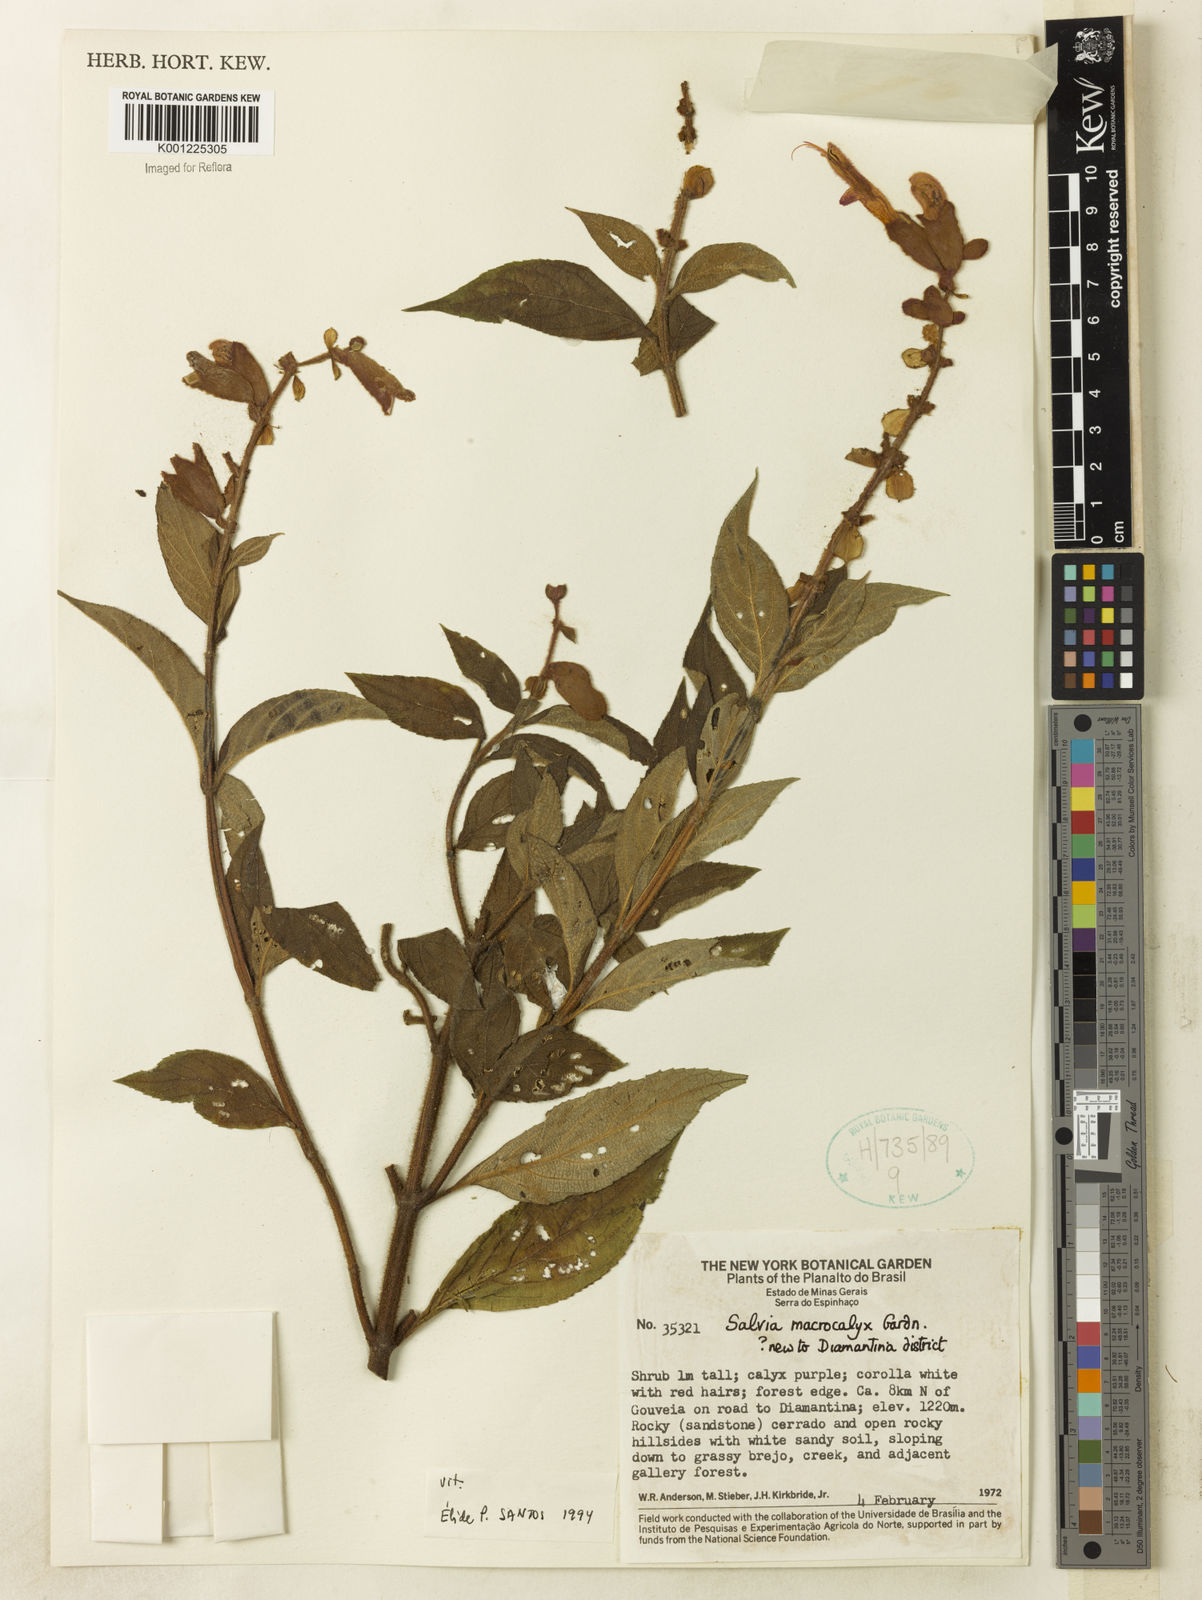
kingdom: Plantae
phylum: Tracheophyta
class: Magnoliopsida
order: Lamiales
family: Lamiaceae
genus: Salvia
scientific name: Salvia macrocalyx
